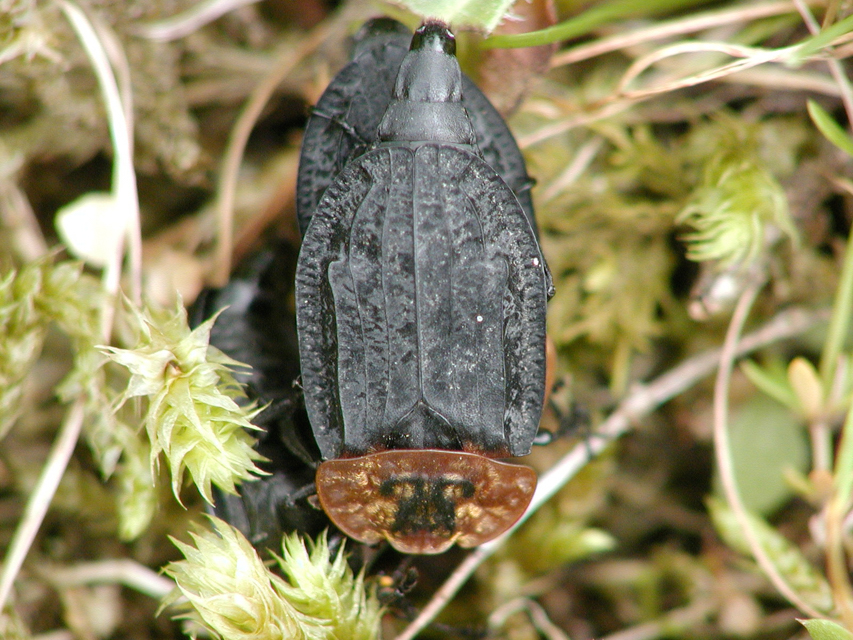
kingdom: Animalia
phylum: Arthropoda
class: Insecta
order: Coleoptera
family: Staphylinidae
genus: Oiceoptoma
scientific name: Oiceoptoma thoracicum
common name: Red-breasted carrion beetle
